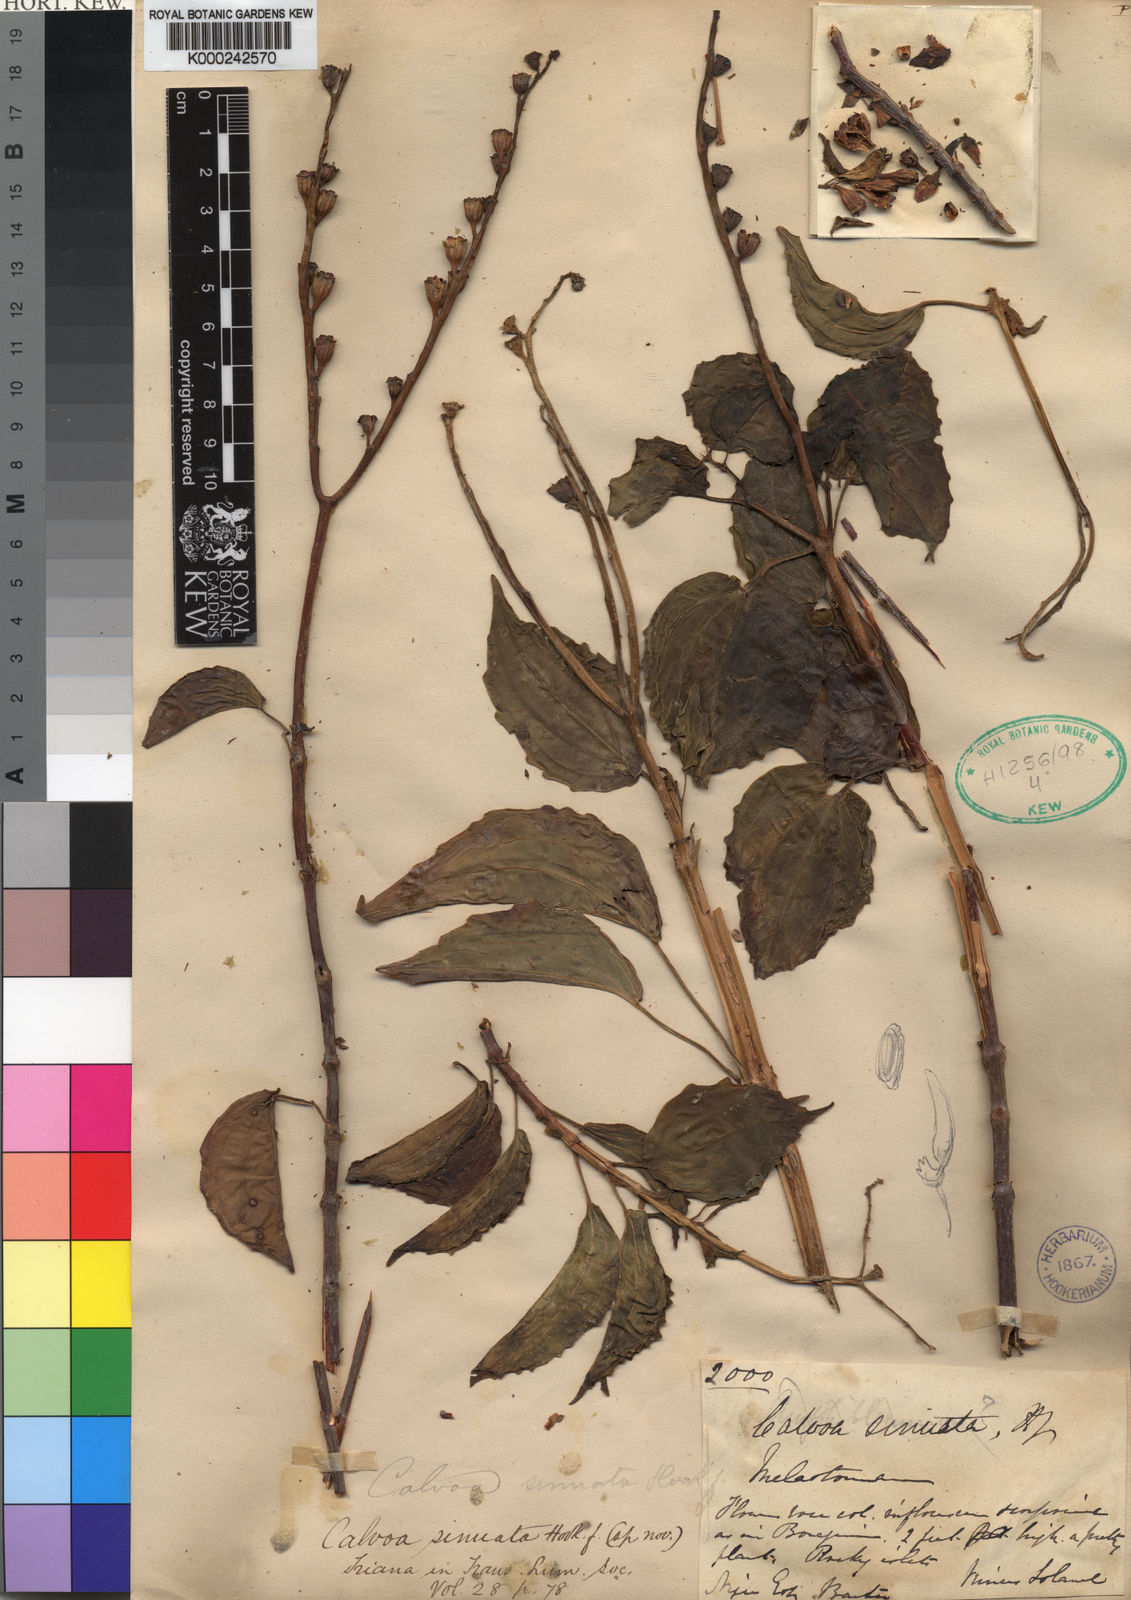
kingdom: Plantae
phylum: Tracheophyta
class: Magnoliopsida
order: Myrtales
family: Melastomataceae
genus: Calvoa
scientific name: Calvoa
